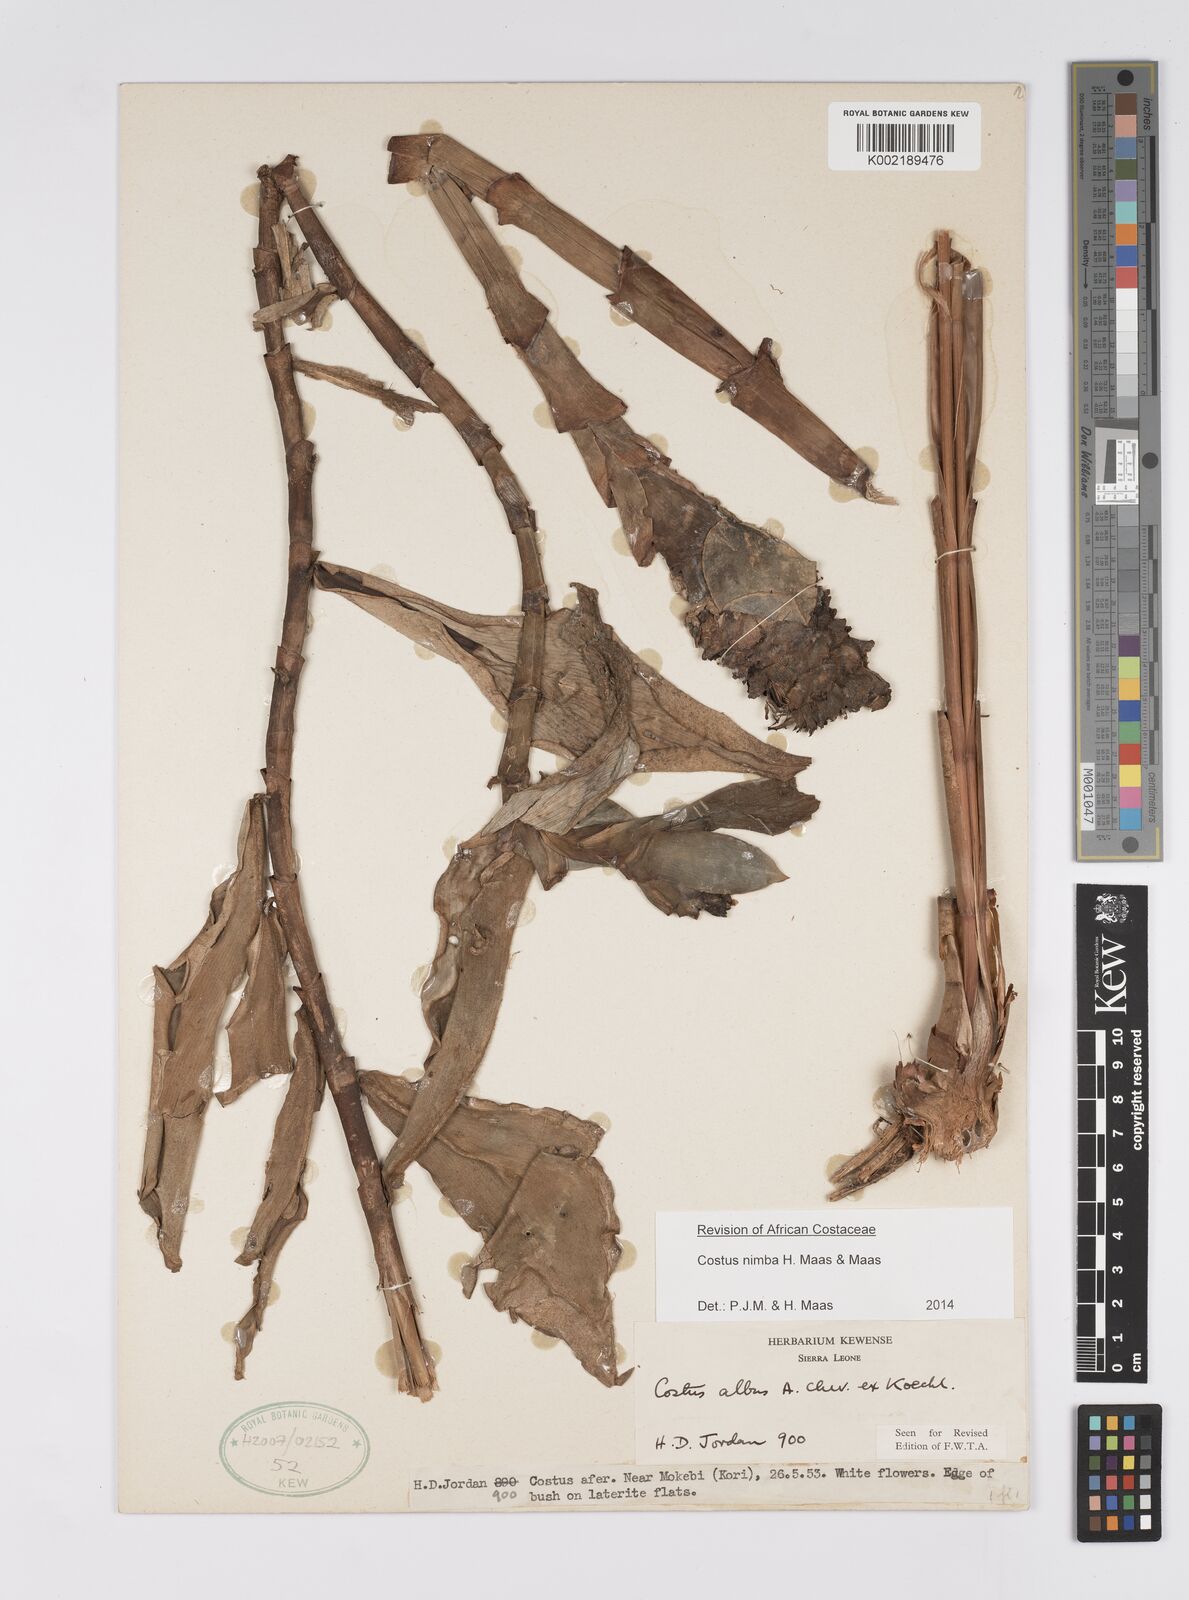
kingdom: Plantae
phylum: Tracheophyta
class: Liliopsida
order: Zingiberales
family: Costaceae
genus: Costus
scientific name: Costus nimba
